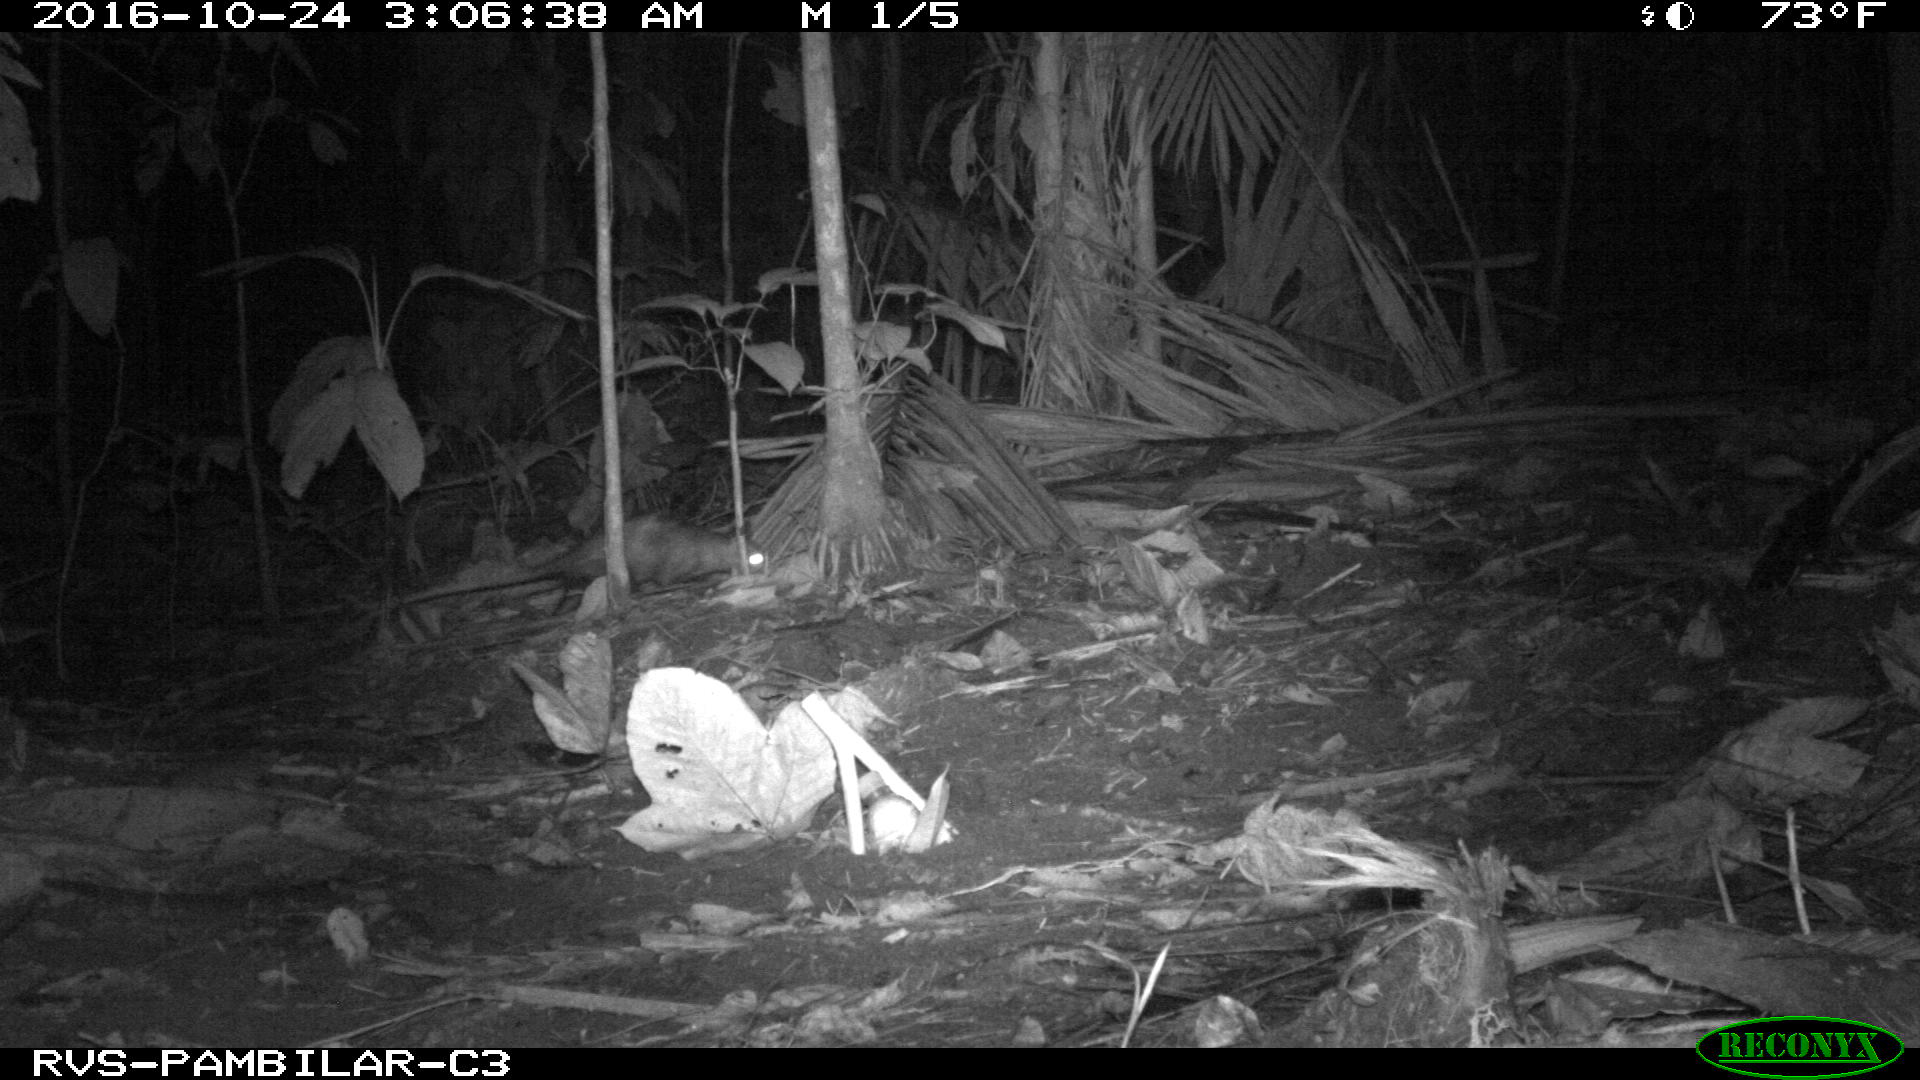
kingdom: Animalia
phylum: Chordata
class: Mammalia
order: Didelphimorphia
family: Didelphidae
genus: Didelphis
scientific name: Didelphis marsupialis
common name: Common opossum
